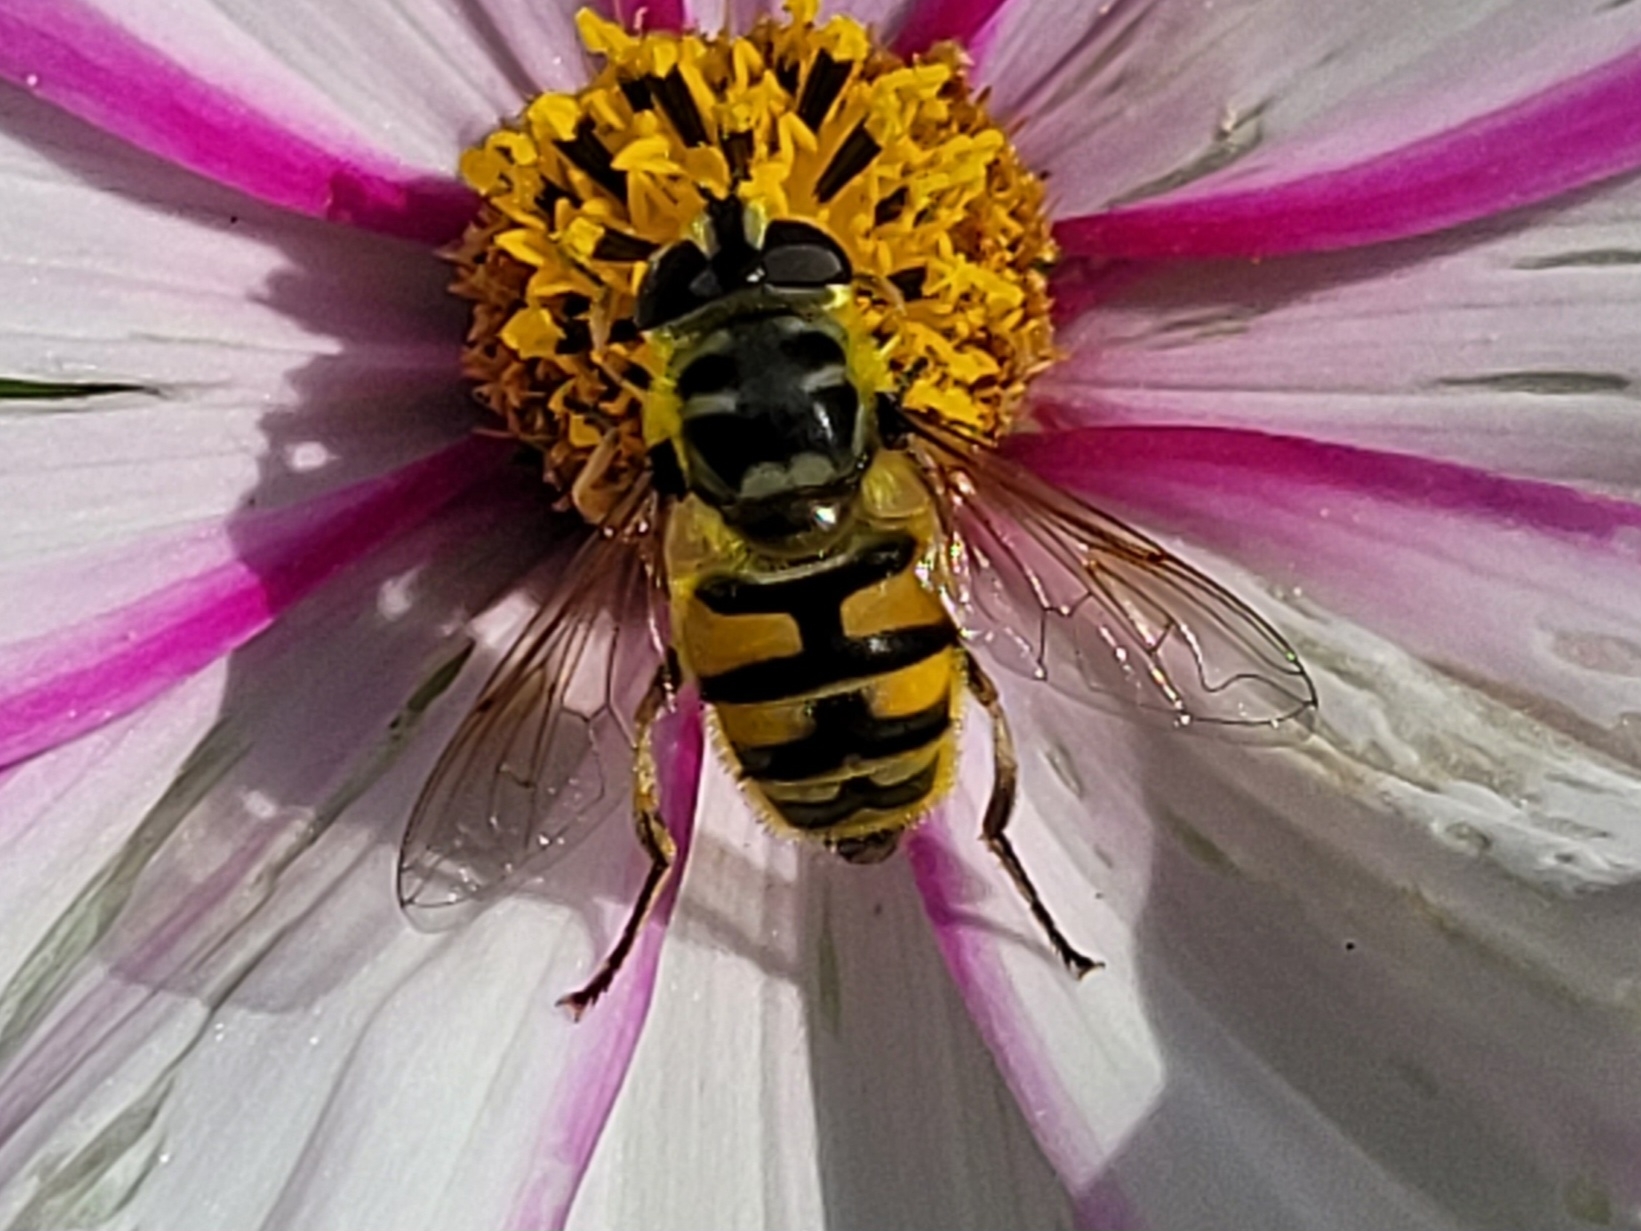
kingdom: Animalia
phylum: Arthropoda
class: Insecta
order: Diptera
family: Syrphidae
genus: Myathropa
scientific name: Myathropa florea
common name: Dødningehoved-svirreflue
